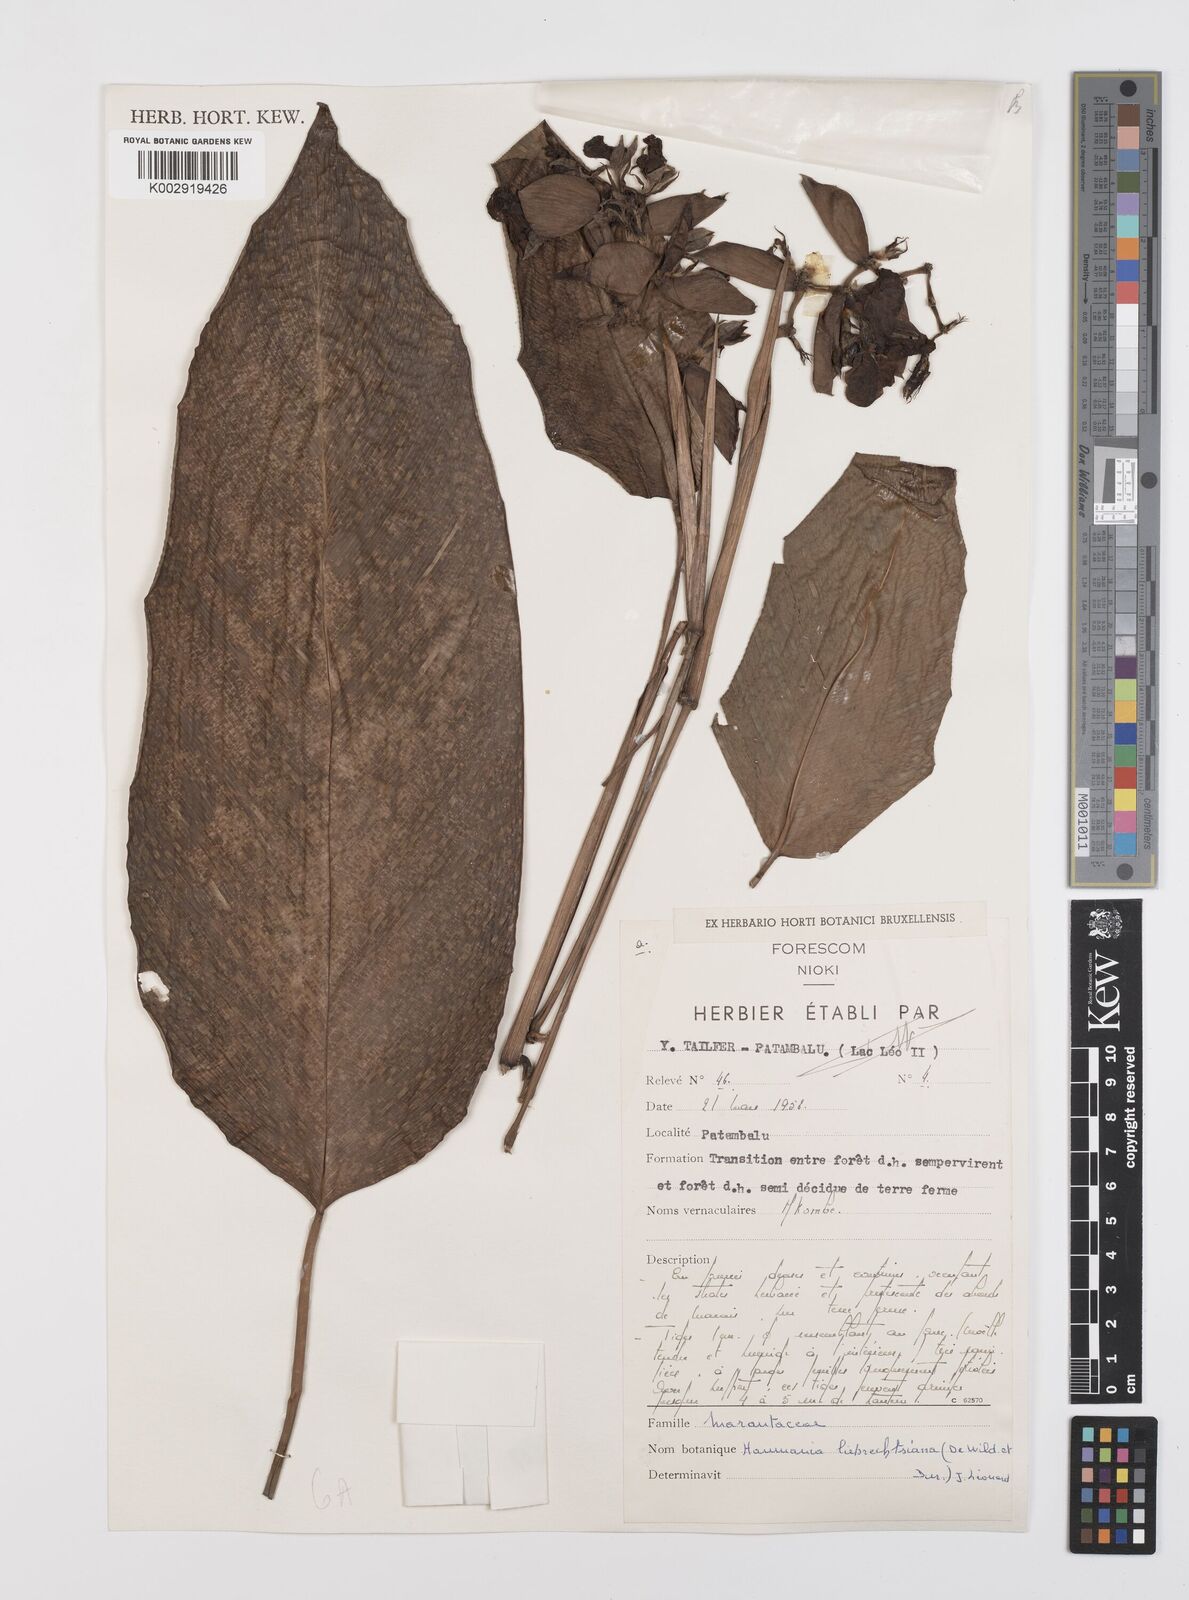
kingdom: Plantae
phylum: Tracheophyta
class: Liliopsida
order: Zingiberales
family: Marantaceae
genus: Haumania
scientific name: Haumania liebrechtsiana
